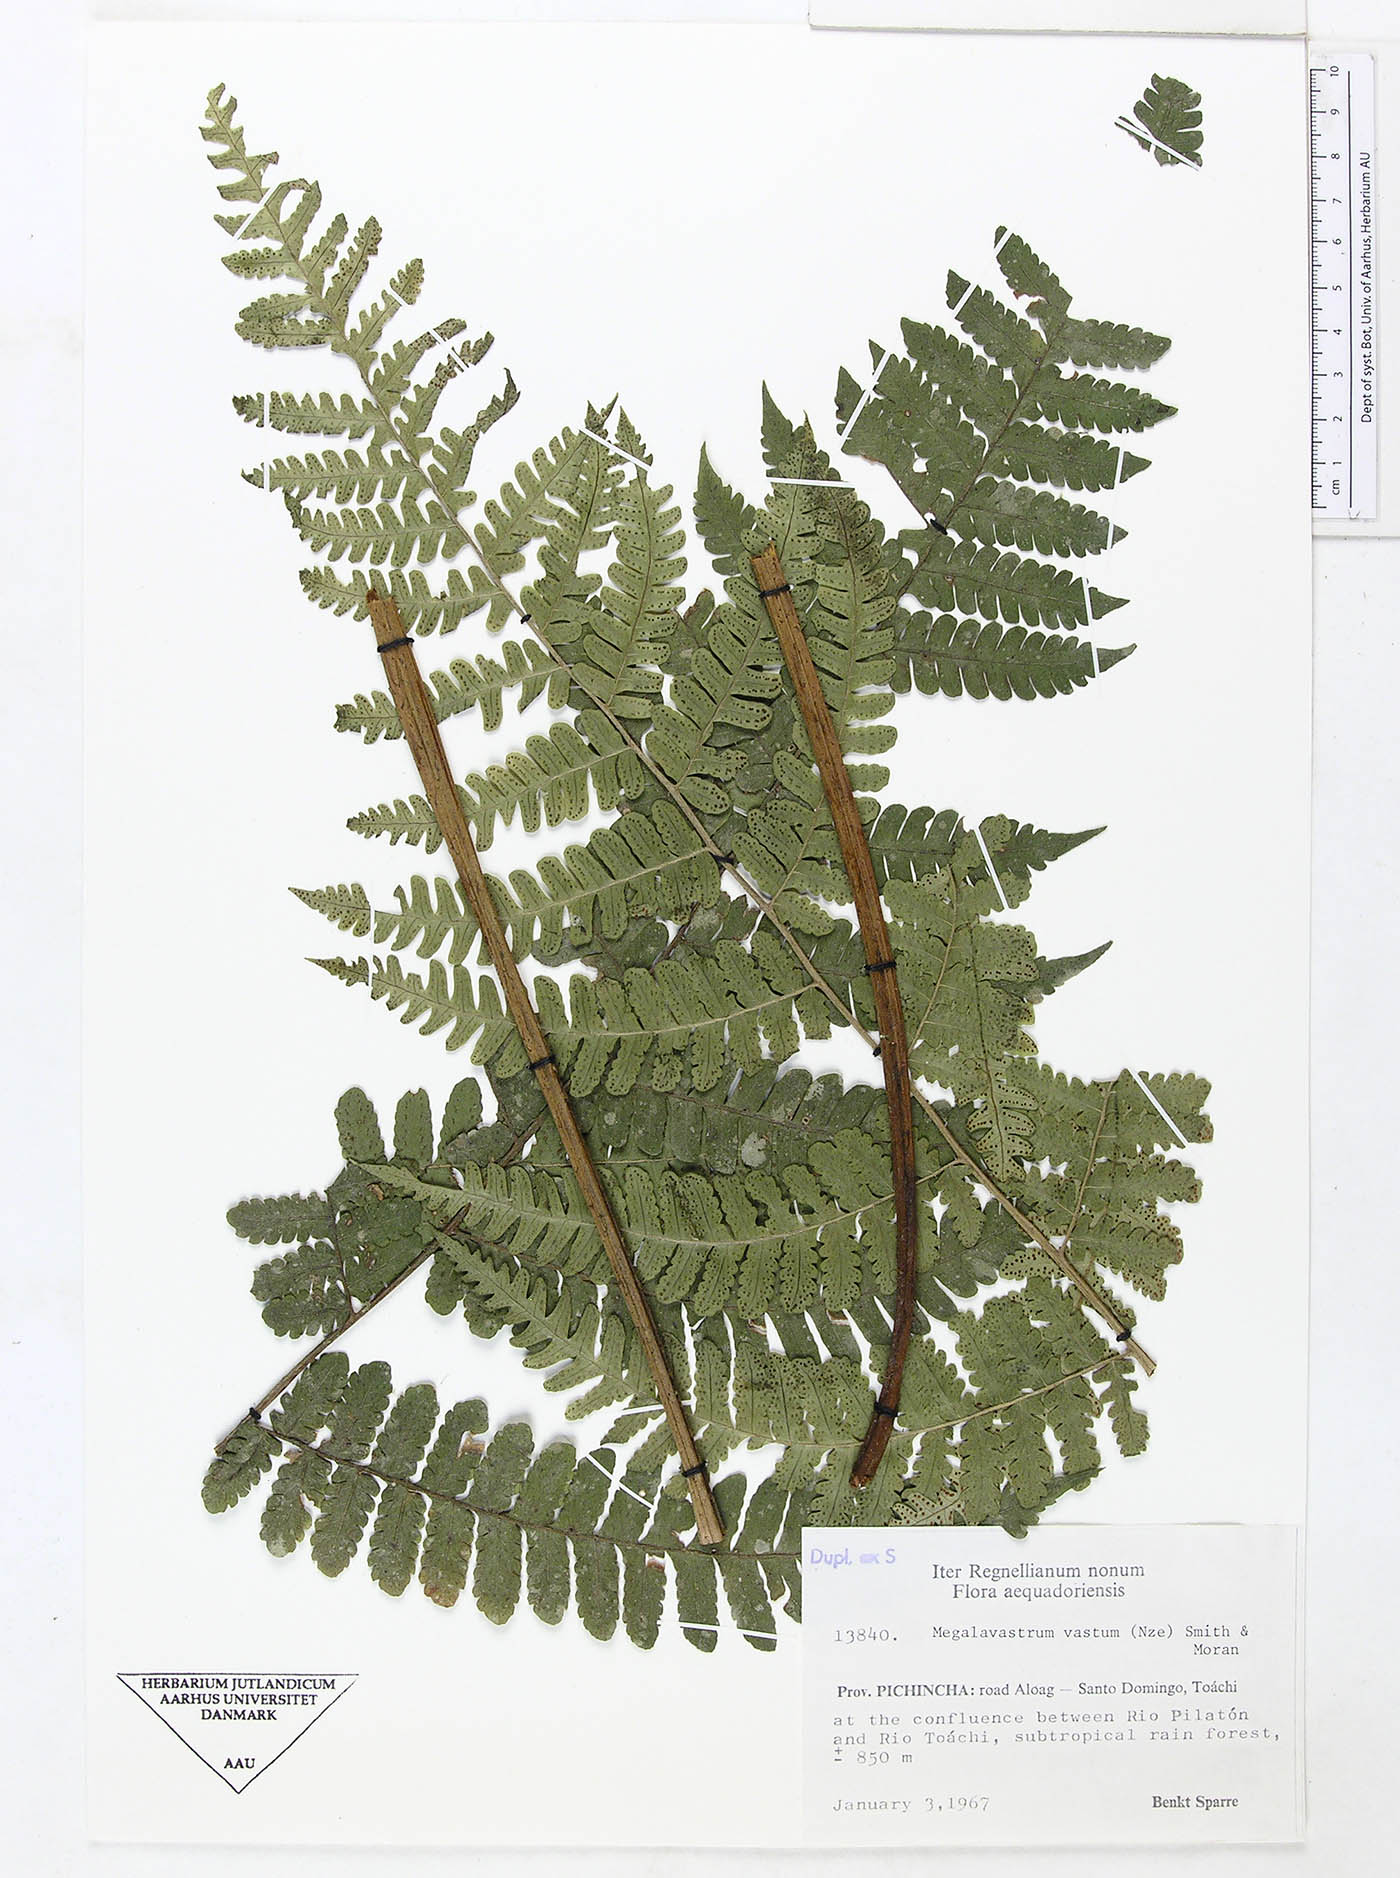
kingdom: Plantae
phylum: Tracheophyta
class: Polypodiopsida
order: Polypodiales
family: Dryopteridaceae
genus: Megalastrum
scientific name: Megalastrum reductum
